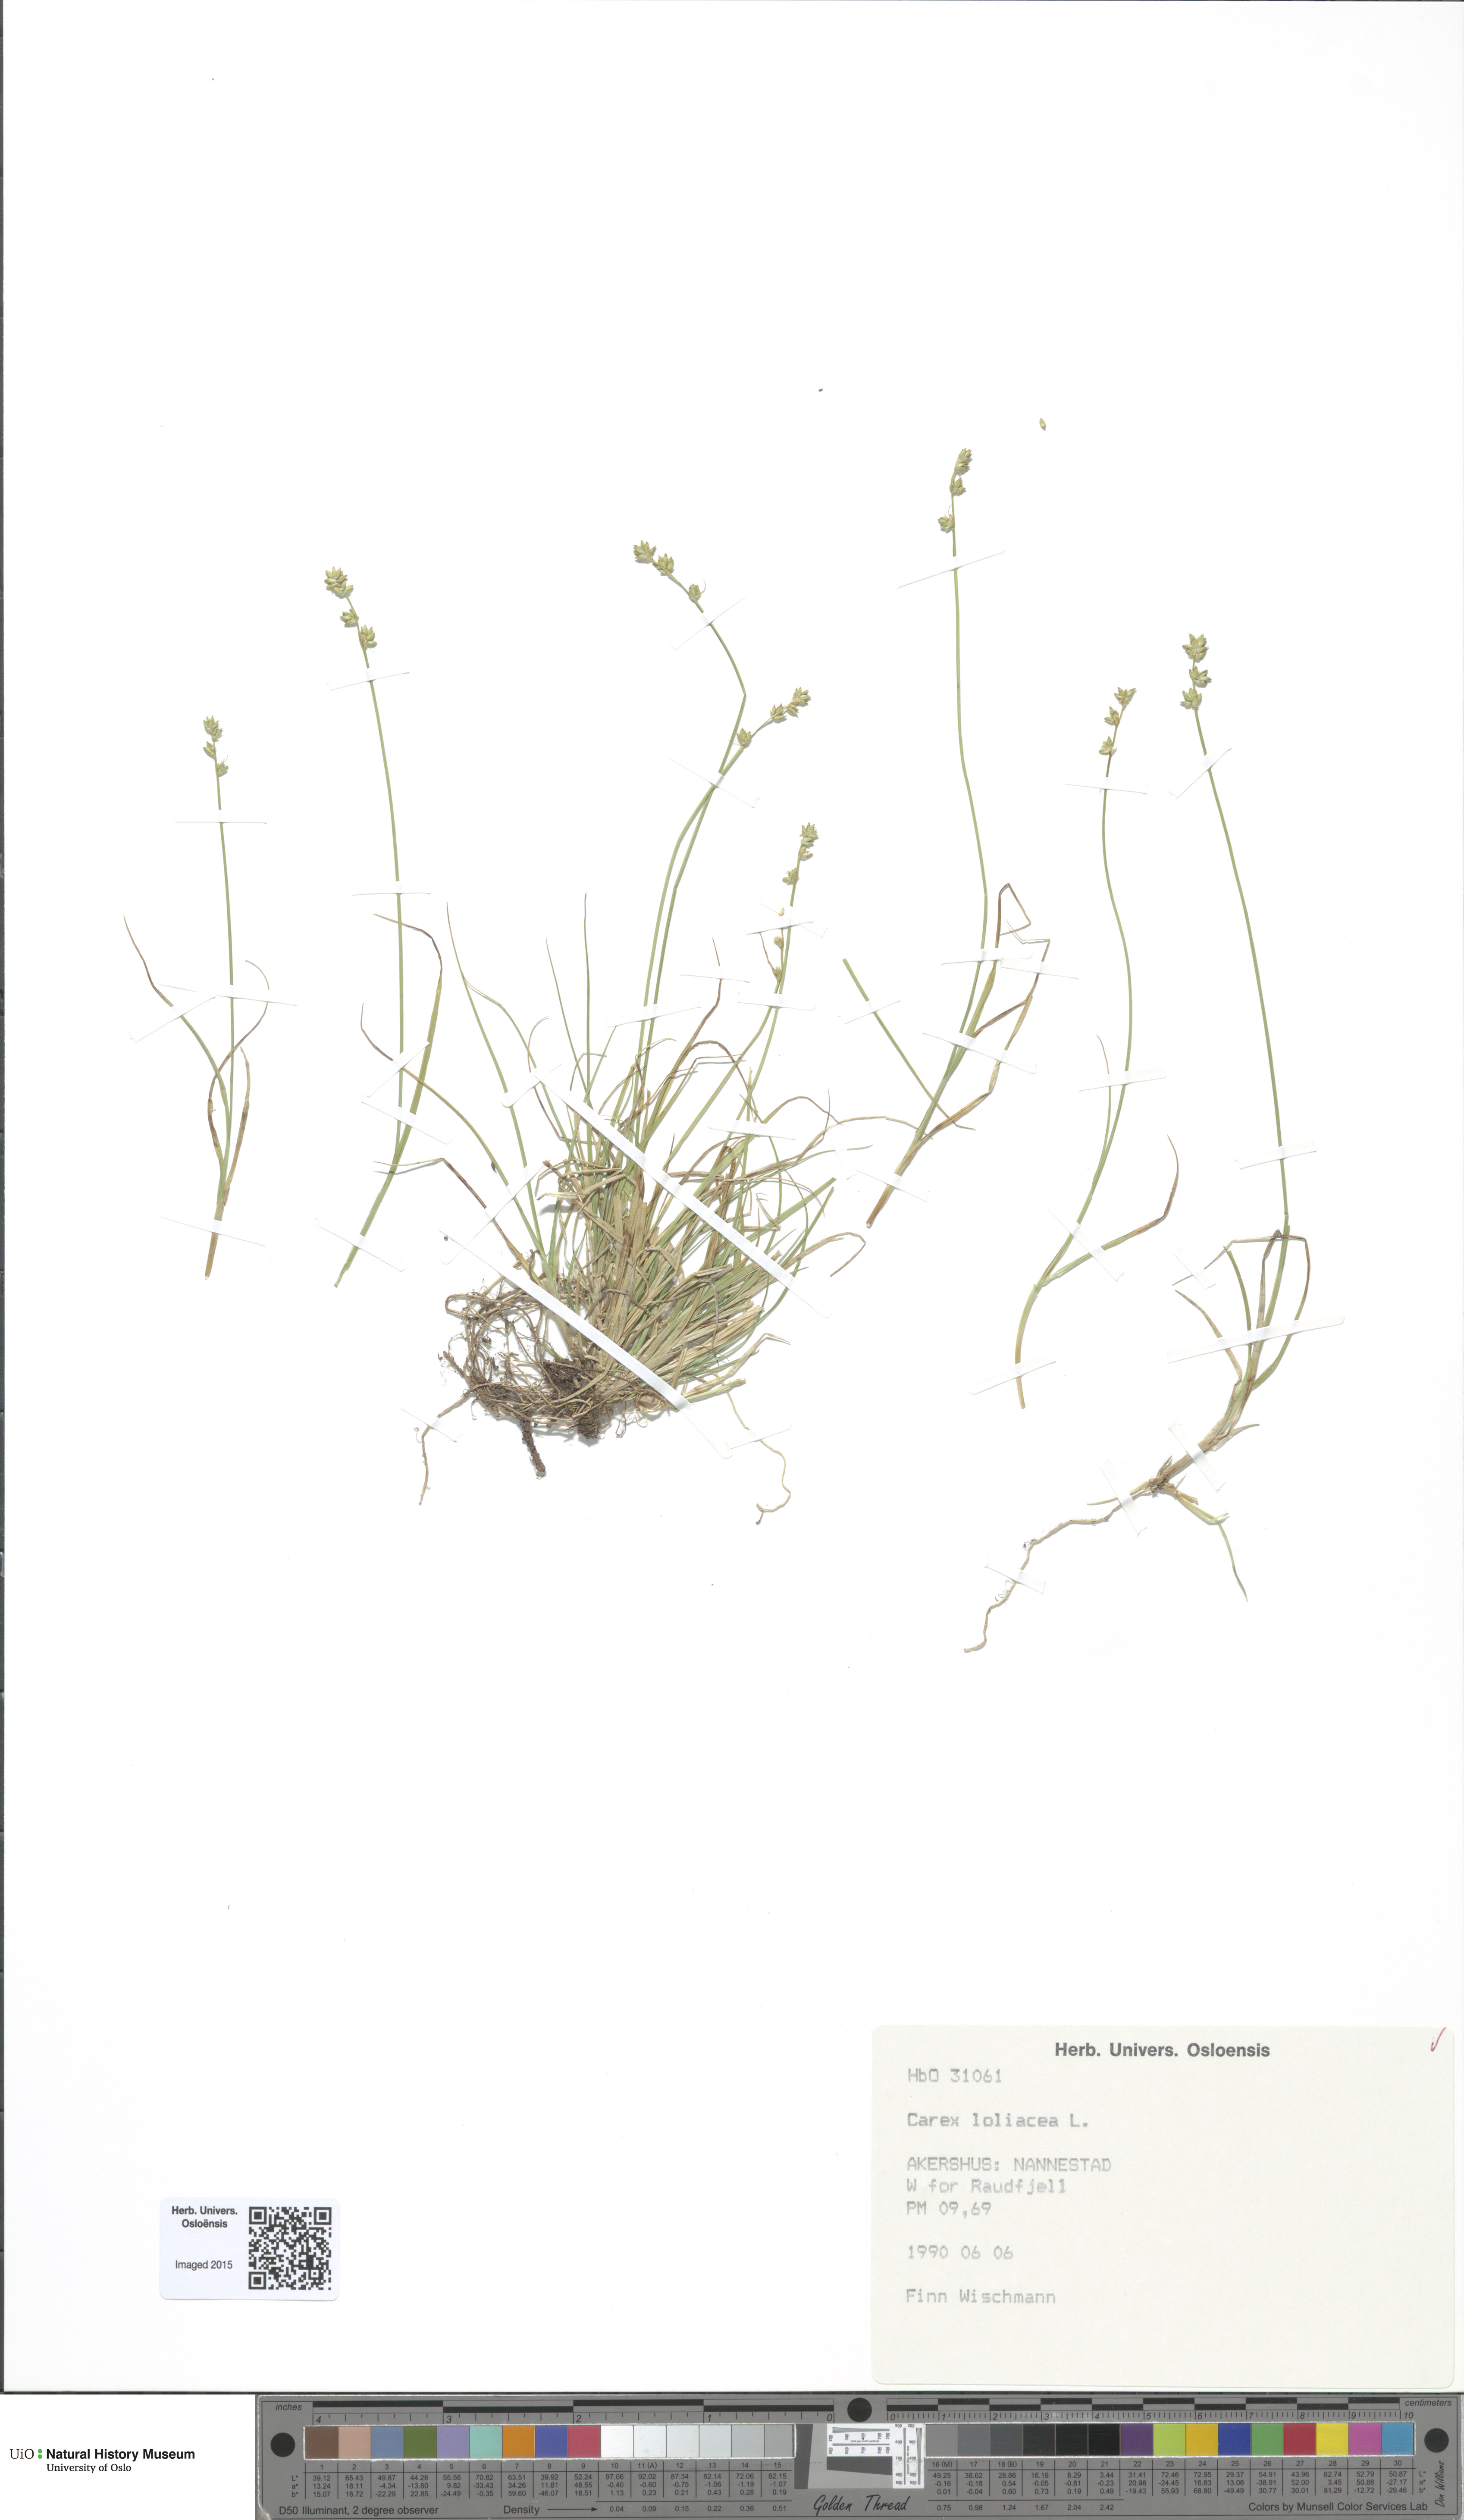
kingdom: Plantae
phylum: Tracheophyta
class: Liliopsida
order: Poales
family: Cyperaceae
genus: Carex
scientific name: Carex loliacea
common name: Ryegrass sedge
